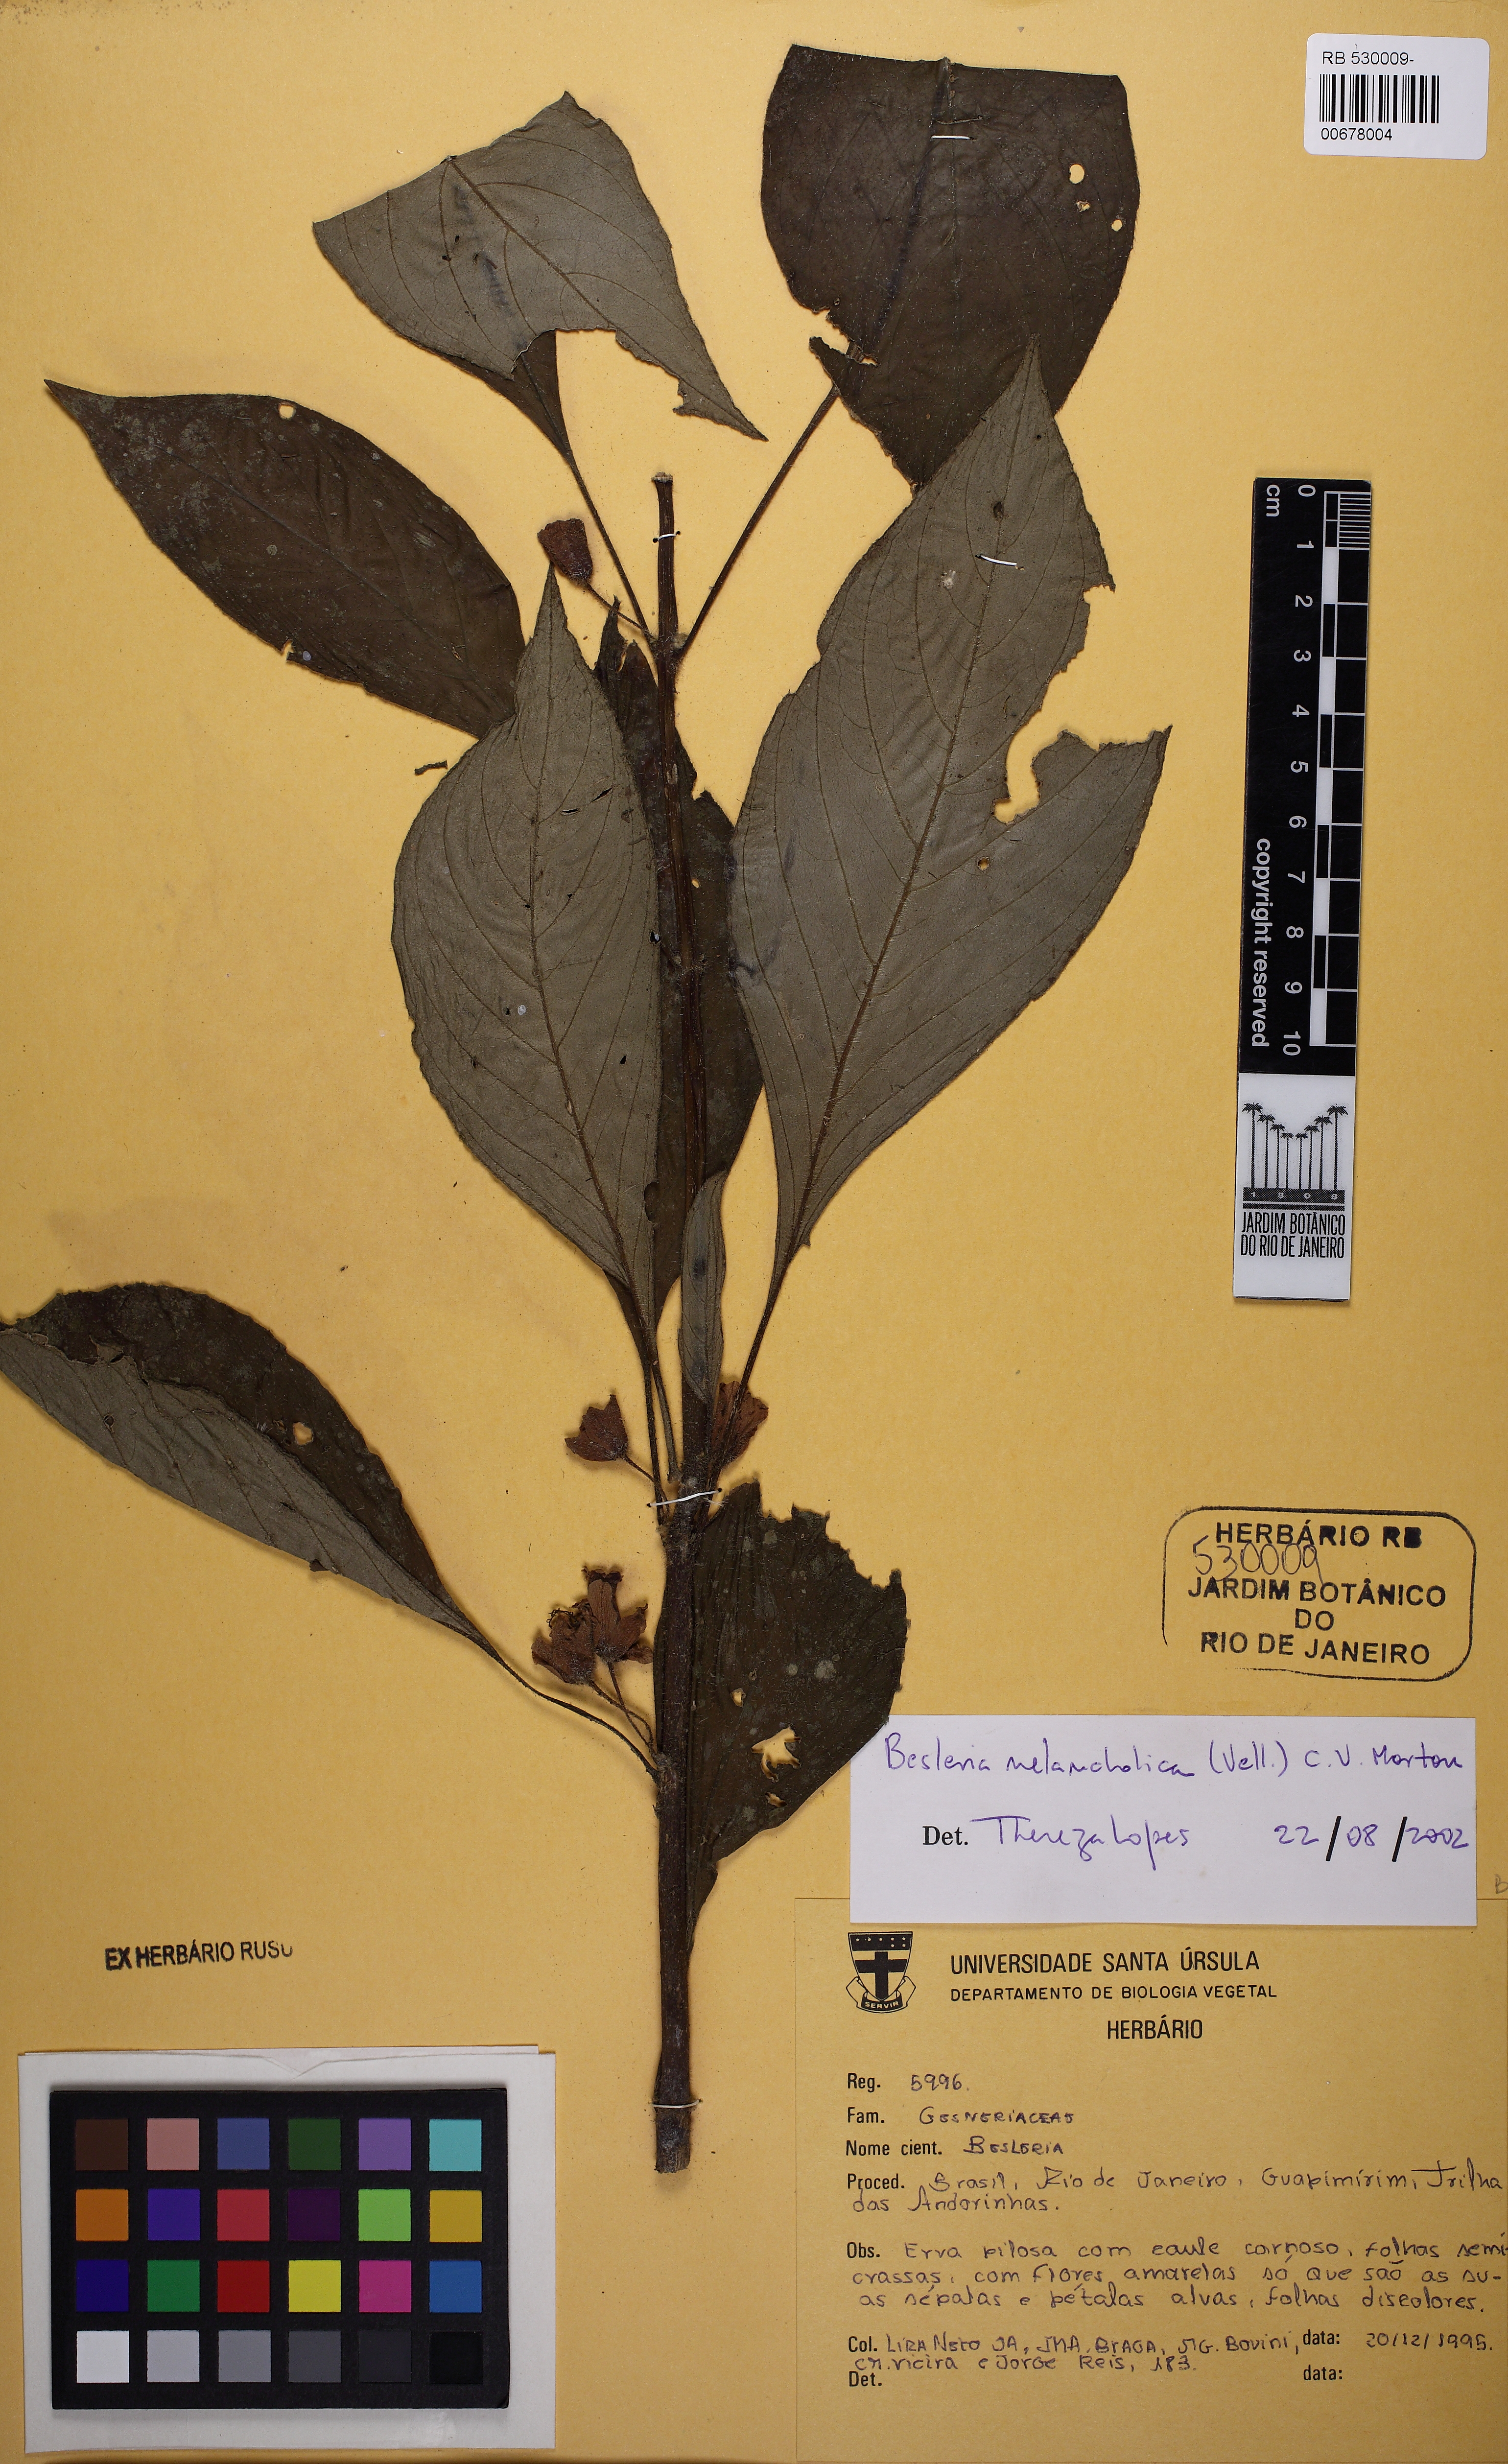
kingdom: Plantae
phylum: Tracheophyta
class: Magnoliopsida
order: Lamiales
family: Gesneriaceae
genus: Besleria
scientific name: Besleria melancholica
